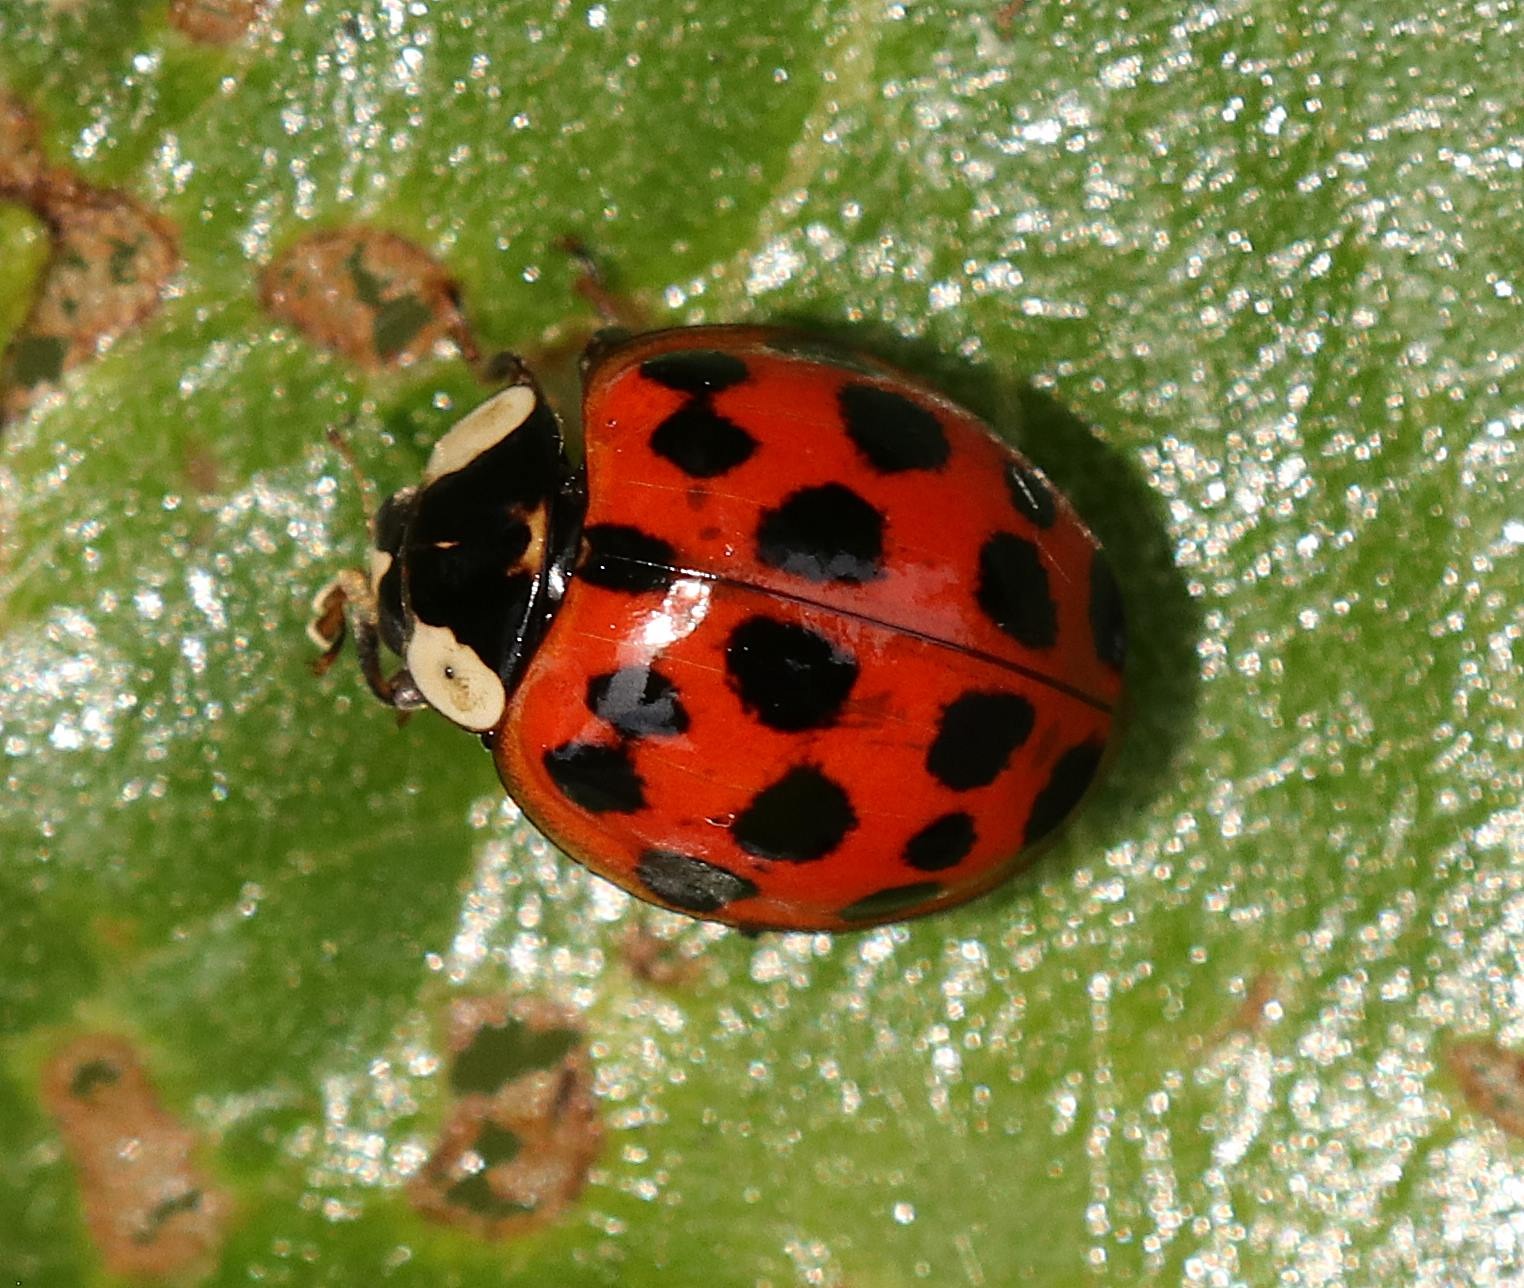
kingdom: Animalia
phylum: Arthropoda
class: Insecta
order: Coleoptera
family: Coccinellidae
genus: Harmonia
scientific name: Harmonia axyridis
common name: Harlekinmariehøne
